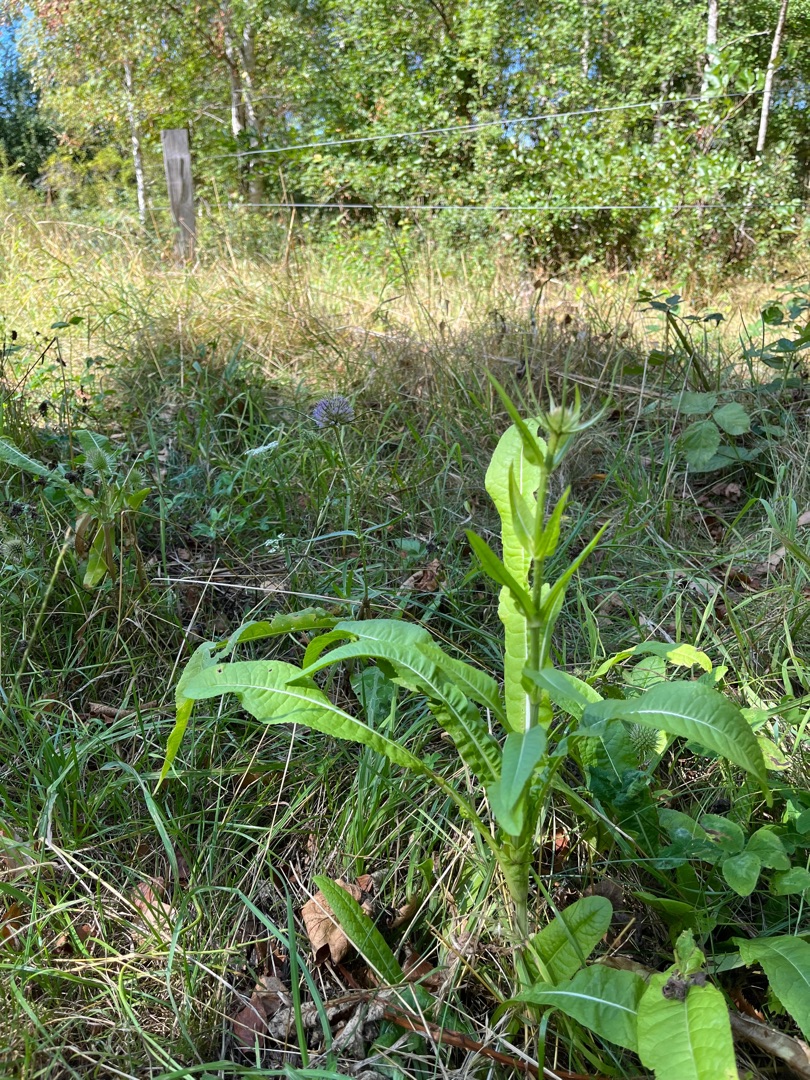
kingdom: Plantae
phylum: Tracheophyta
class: Magnoliopsida
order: Dipsacales
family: Caprifoliaceae
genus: Dipsacus
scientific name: Dipsacus fullonum
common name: Gærde-kartebolle
